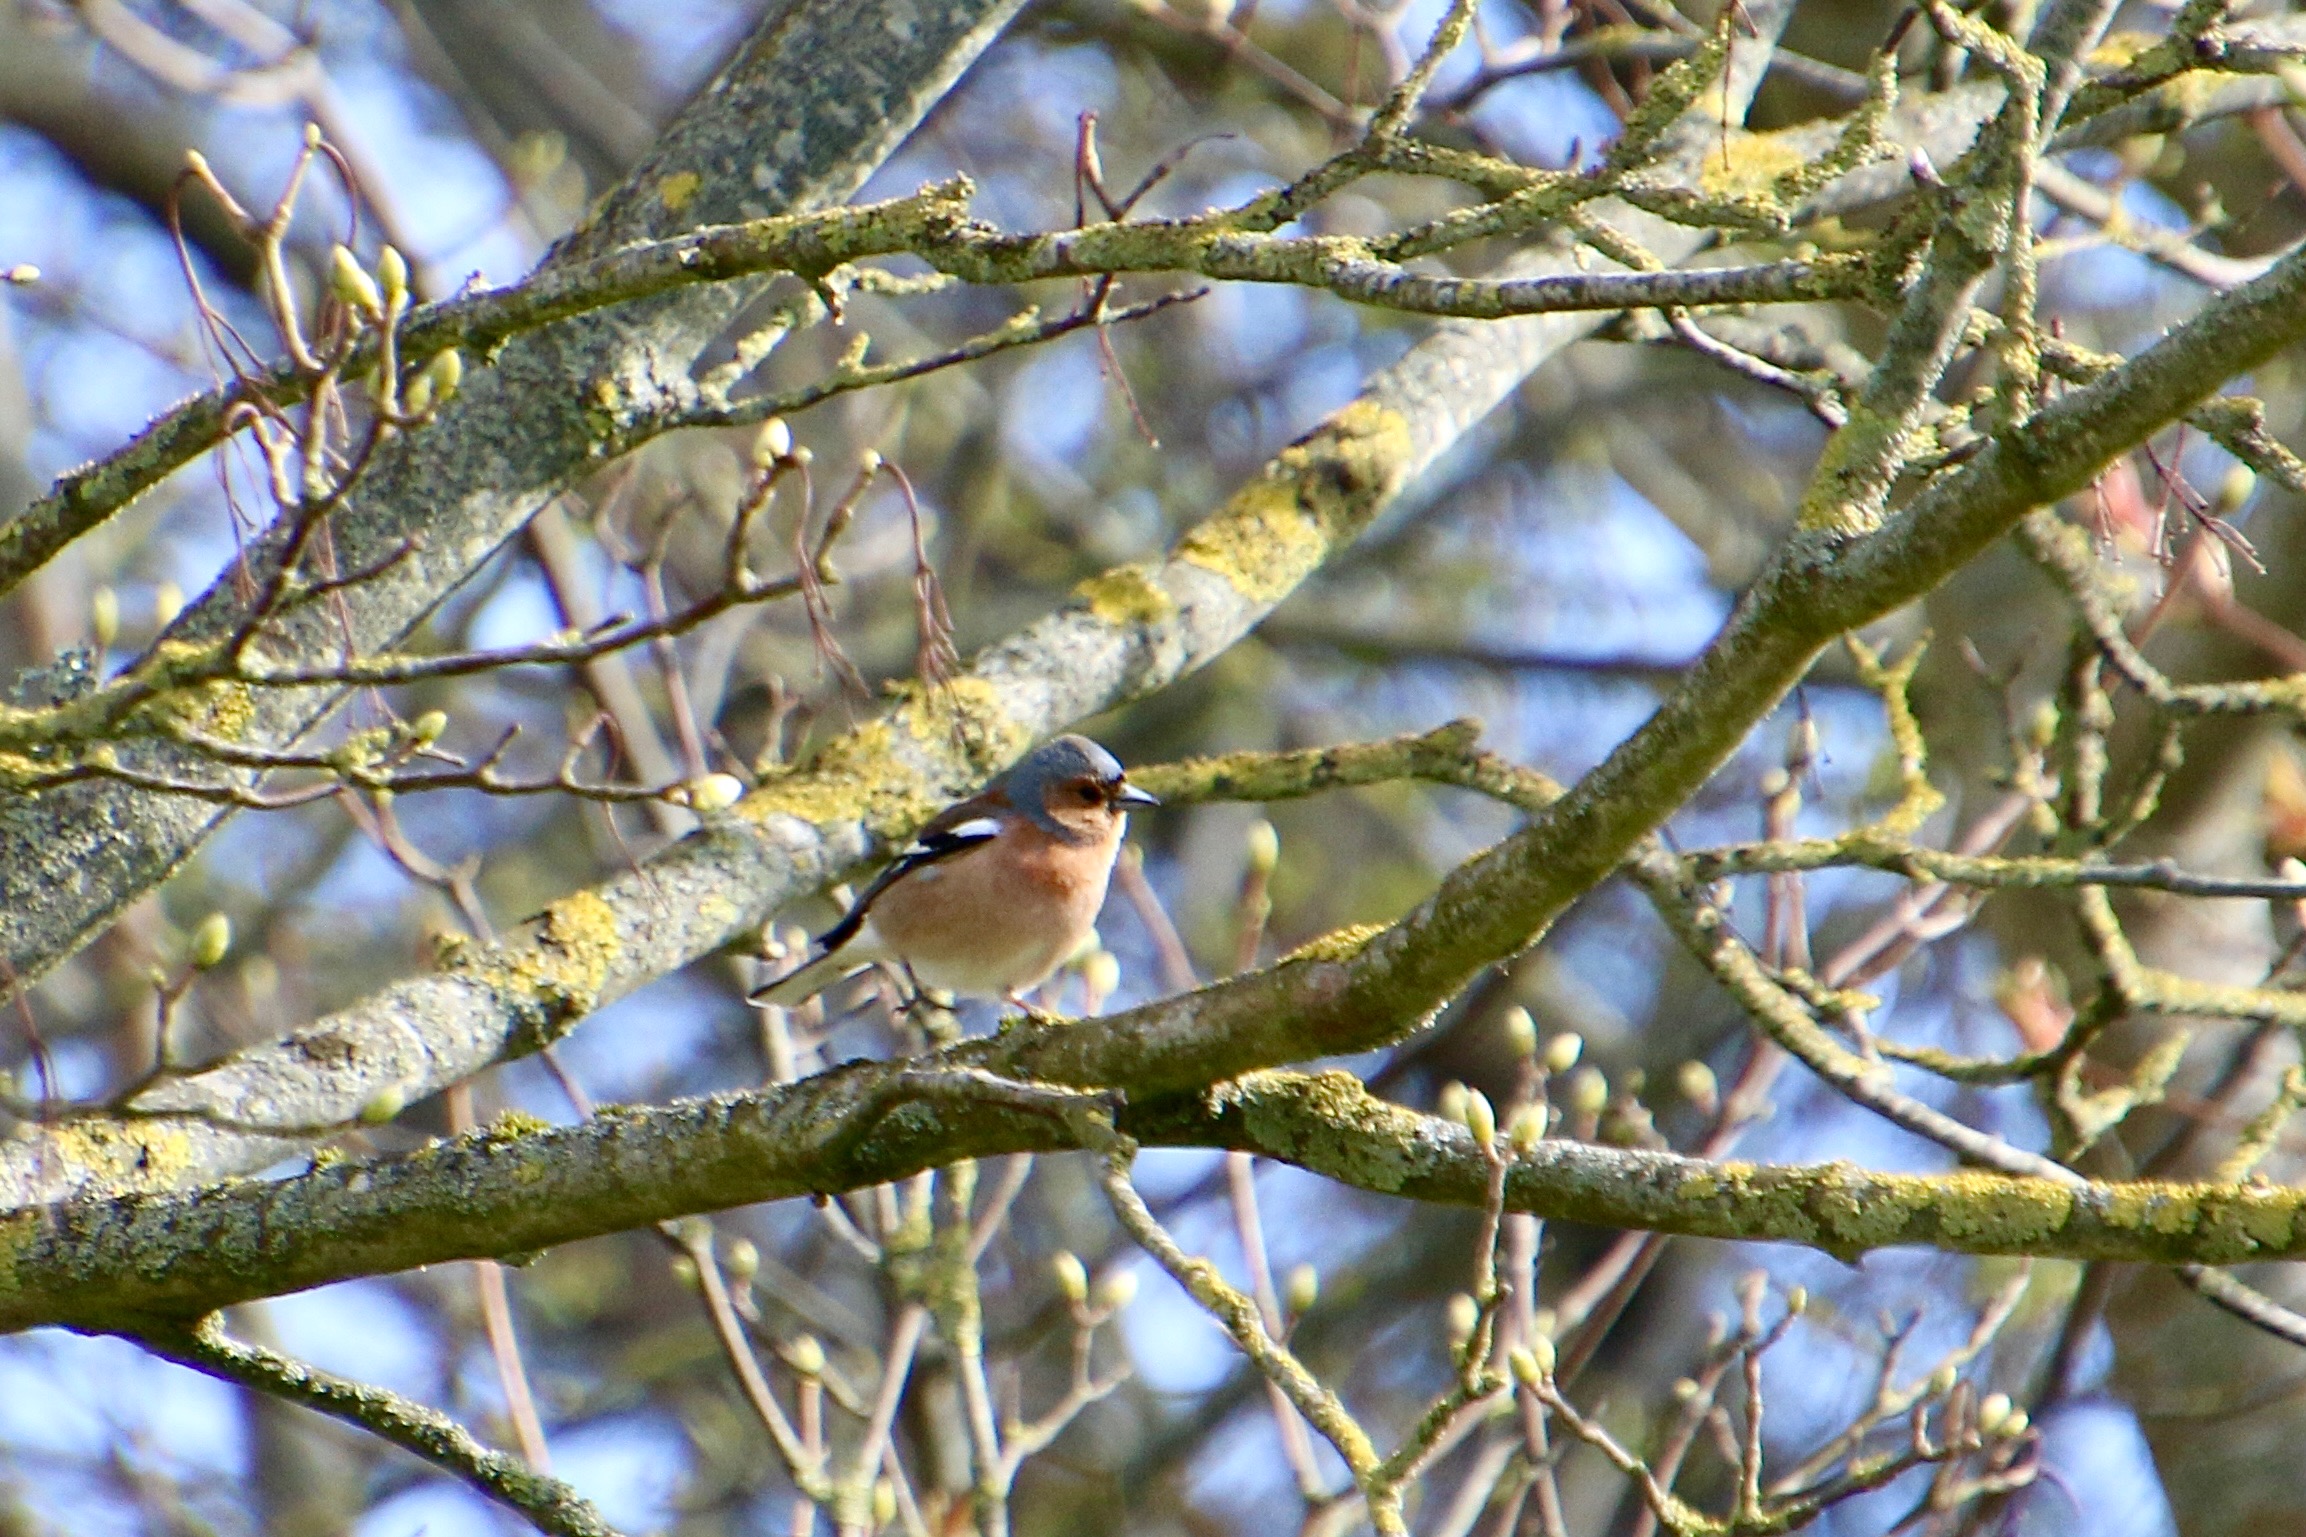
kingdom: Animalia
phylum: Chordata
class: Aves
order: Passeriformes
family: Fringillidae
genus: Fringilla
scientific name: Fringilla coelebs
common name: Bogfinke
